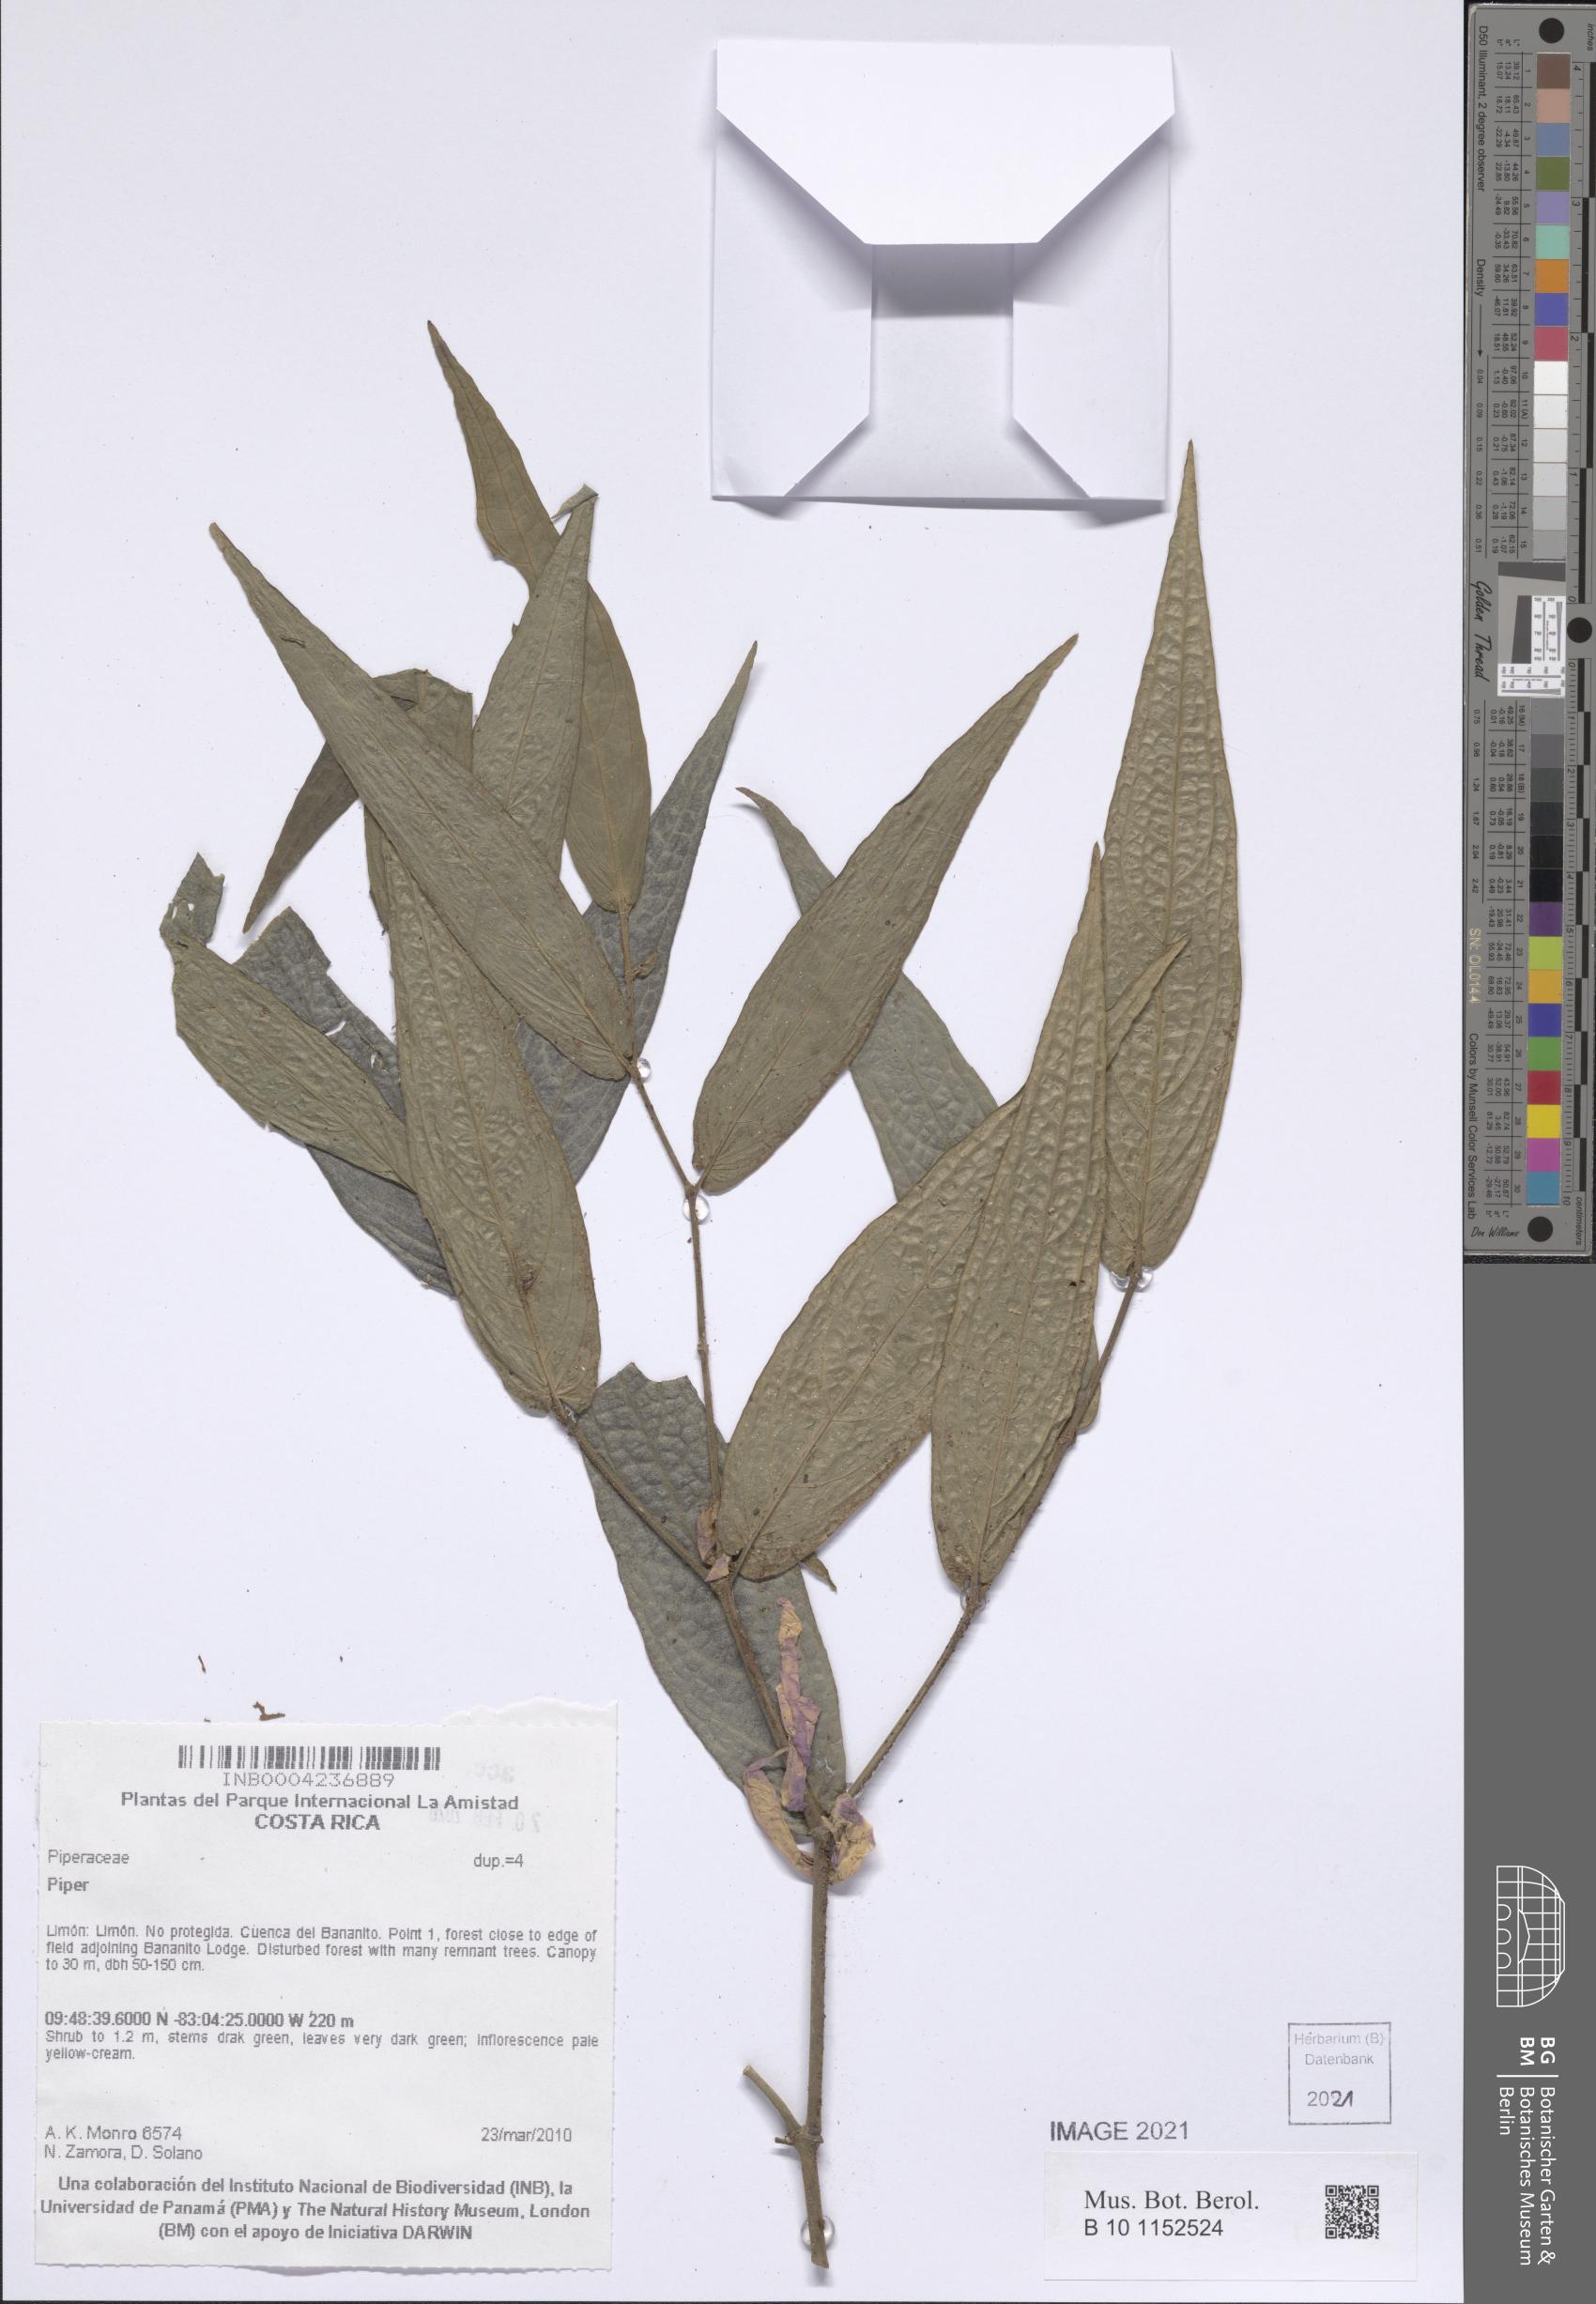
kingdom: Plantae
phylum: Tracheophyta
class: Magnoliopsida
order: Piperales
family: Piperaceae
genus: Piper
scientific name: Piper
